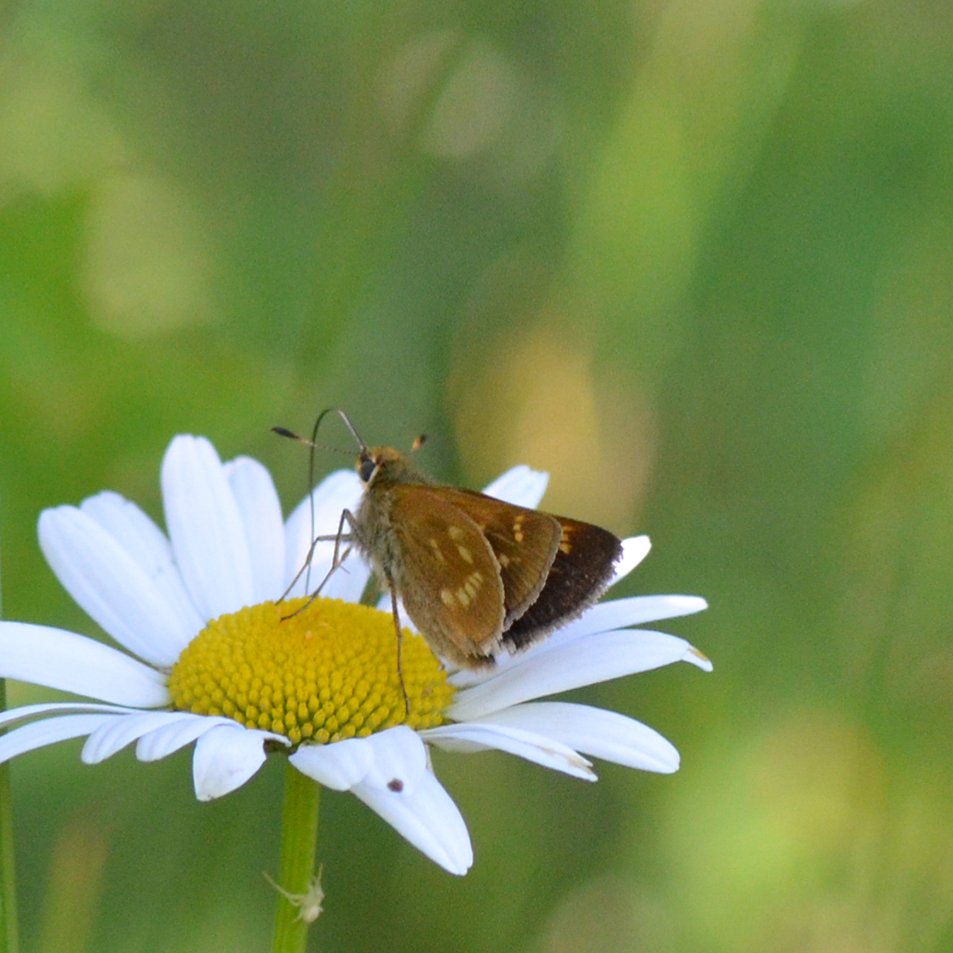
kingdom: Animalia
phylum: Arthropoda
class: Insecta
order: Lepidoptera
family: Hesperiidae
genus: Polites
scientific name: Polites
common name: Long Dash Skipper
